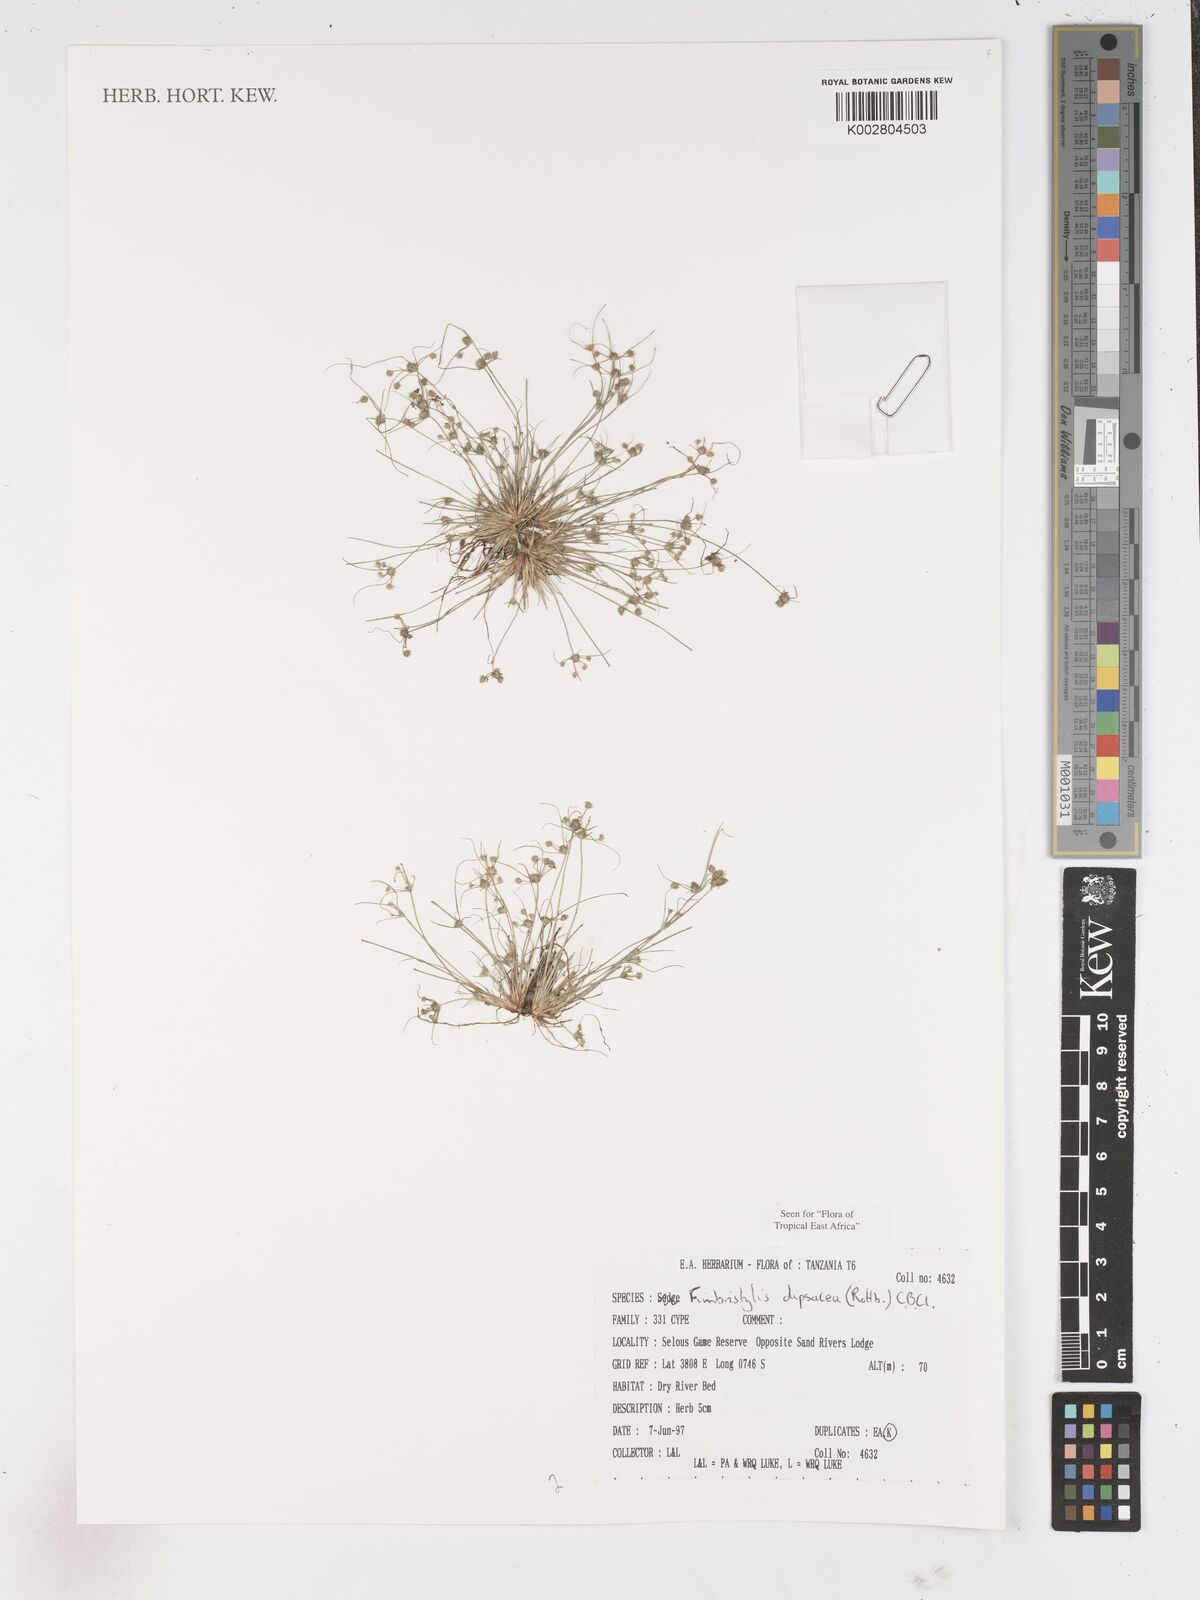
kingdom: Plantae
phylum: Tracheophyta
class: Liliopsida
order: Poales
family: Cyperaceae
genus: Fimbristylis
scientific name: Fimbristylis dipsacea
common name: Harper's fimbristylis
